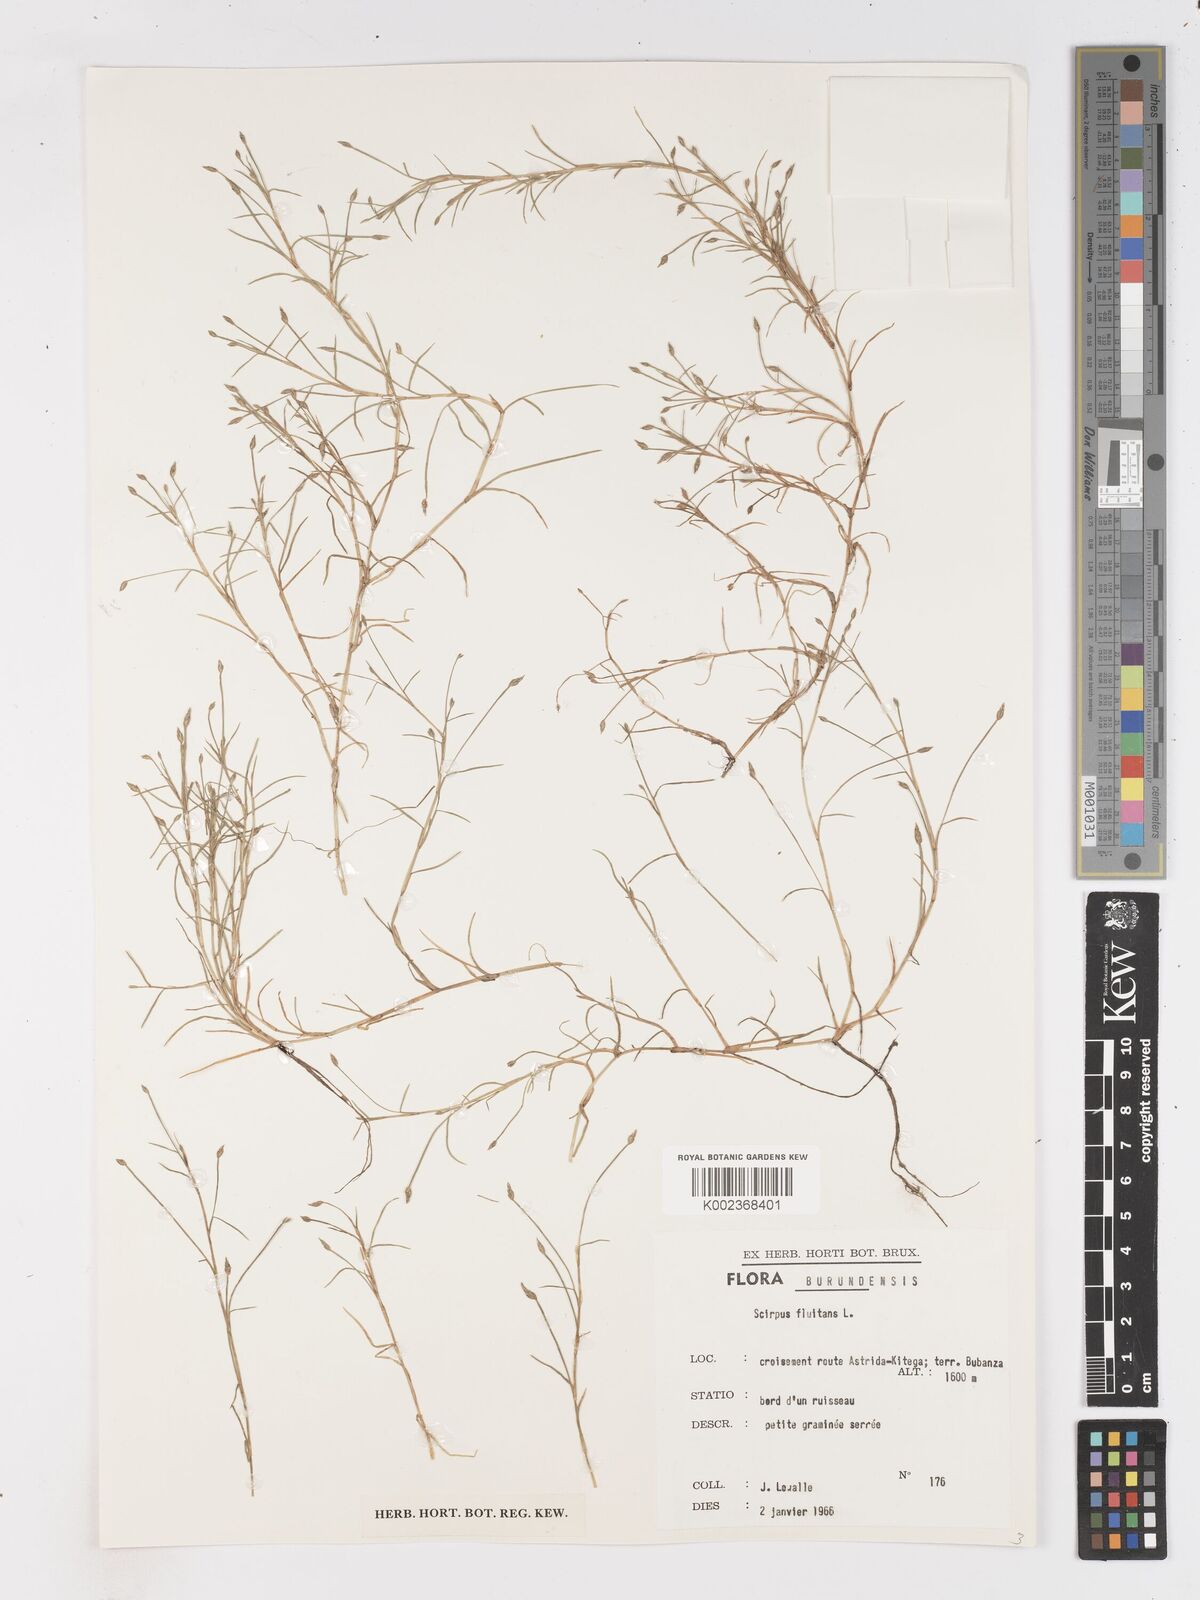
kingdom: Plantae
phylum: Tracheophyta
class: Liliopsida
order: Poales
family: Cyperaceae
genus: Isolepis
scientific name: Isolepis fluitans
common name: Floating club-rush
